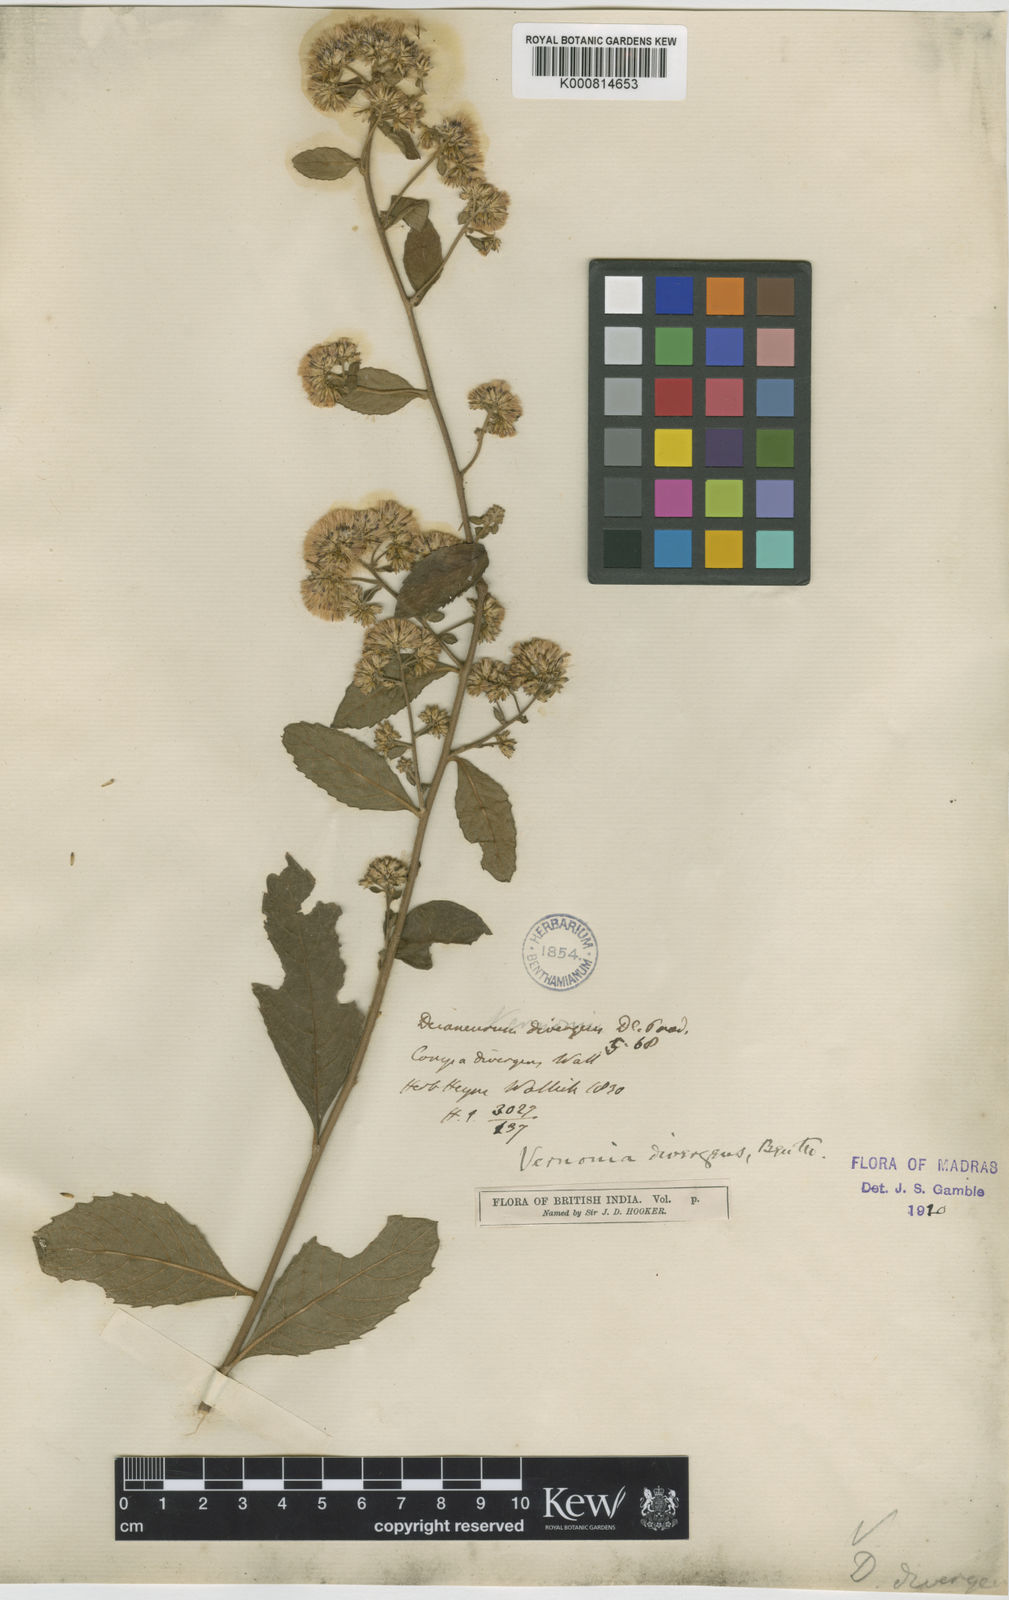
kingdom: Plantae
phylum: Tracheophyta
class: Magnoliopsida
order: Asterales
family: Asteraceae
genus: Vernonia
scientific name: Vernonia
